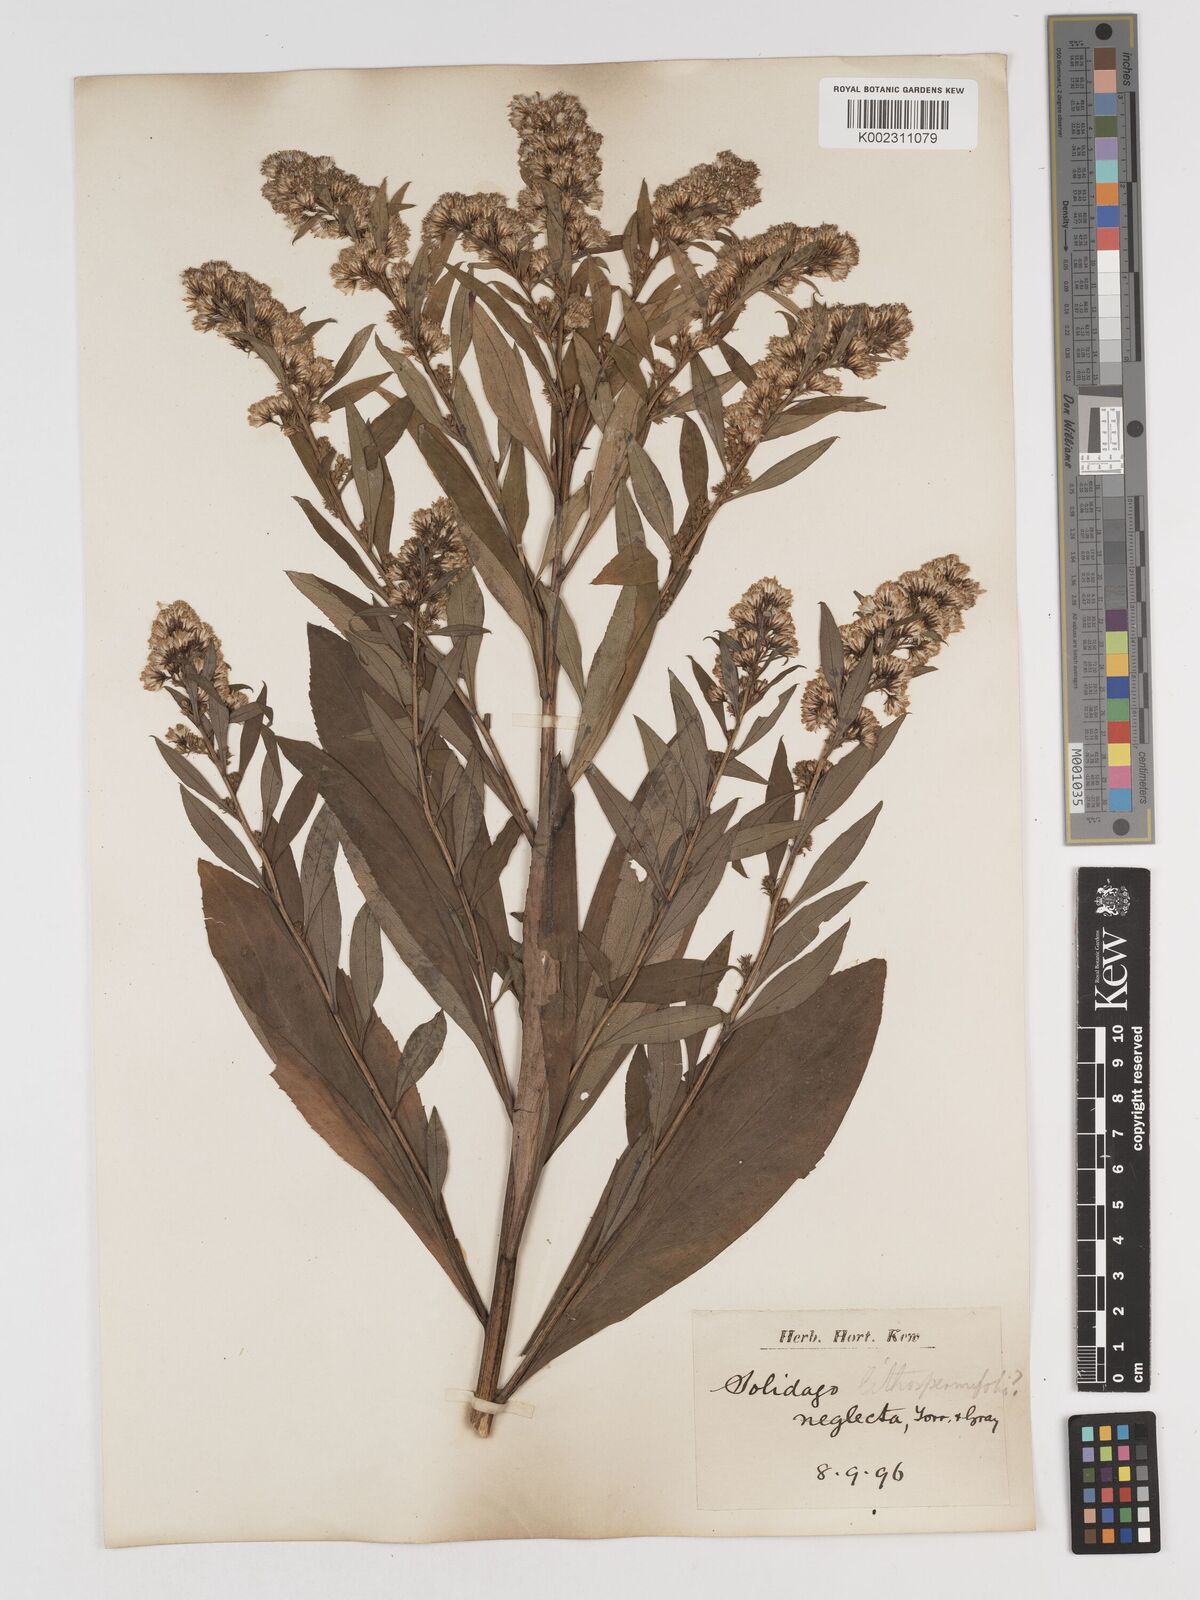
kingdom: Plantae
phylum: Tracheophyta
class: Magnoliopsida
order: Asterales
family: Asteraceae
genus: Solidago
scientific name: Solidago
